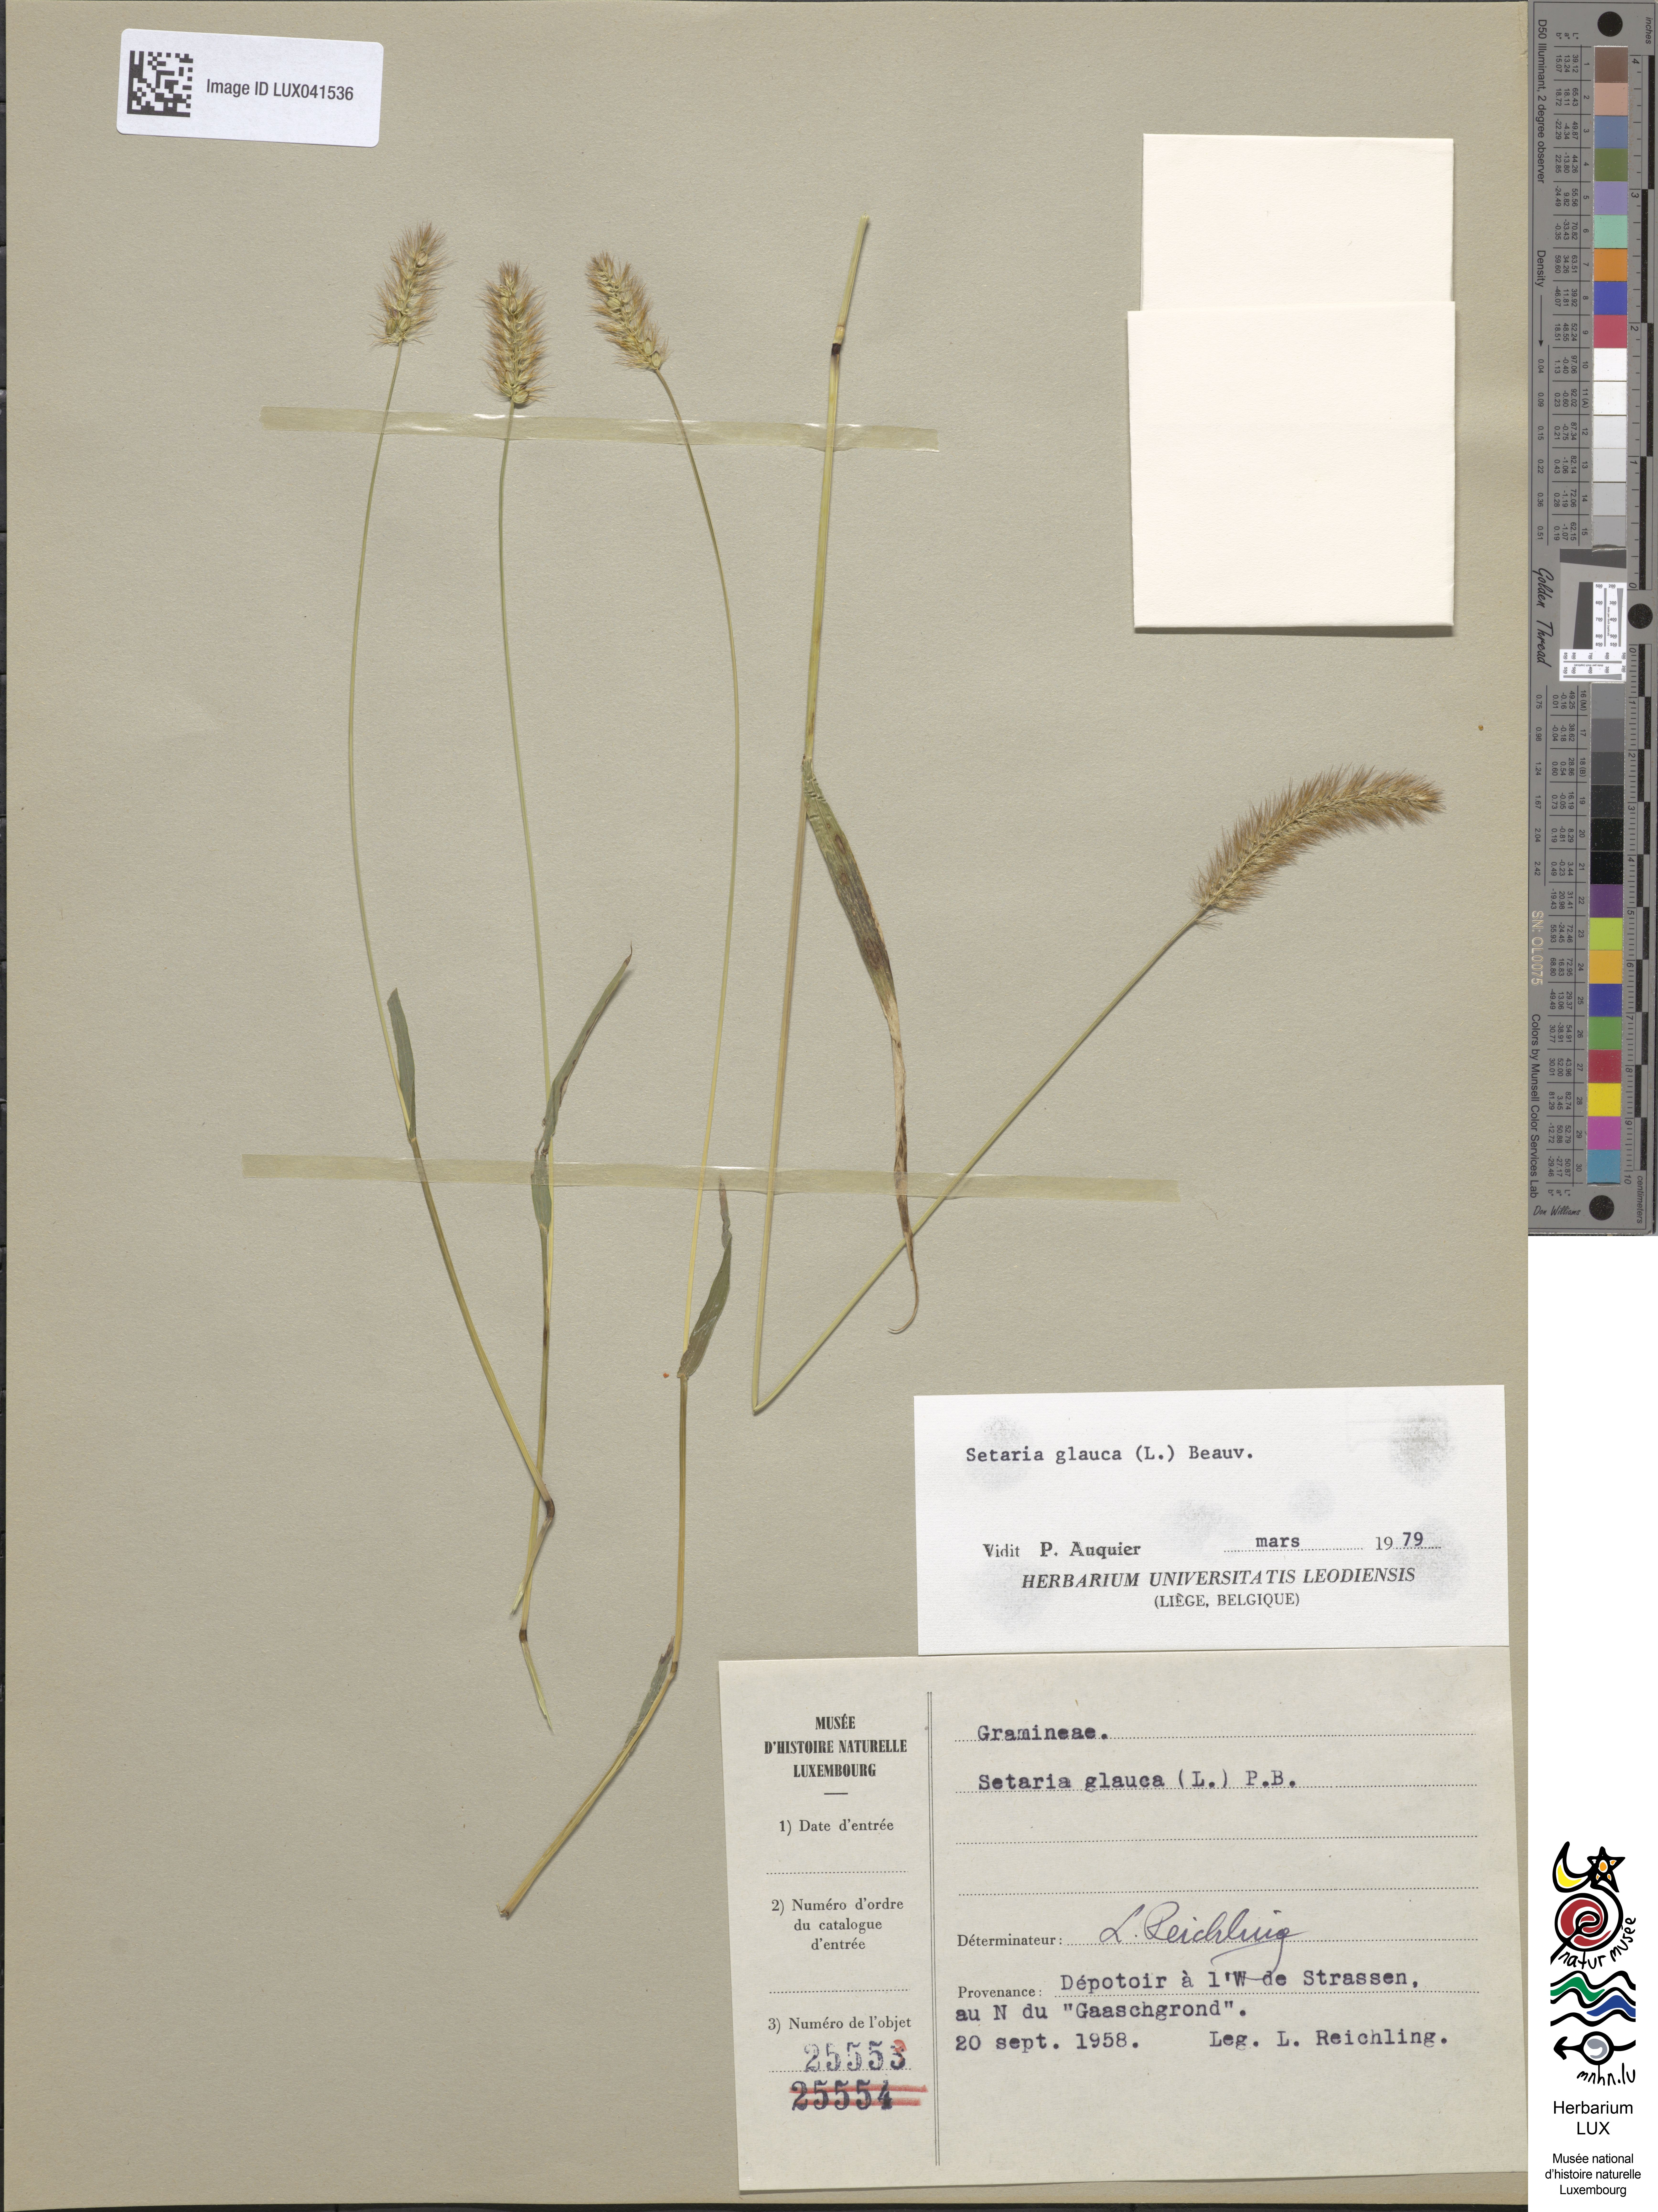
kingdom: Plantae
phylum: Tracheophyta
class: Liliopsida
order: Poales
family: Poaceae
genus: Cenchrus
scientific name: Cenchrus americanus
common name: Pearl millet
